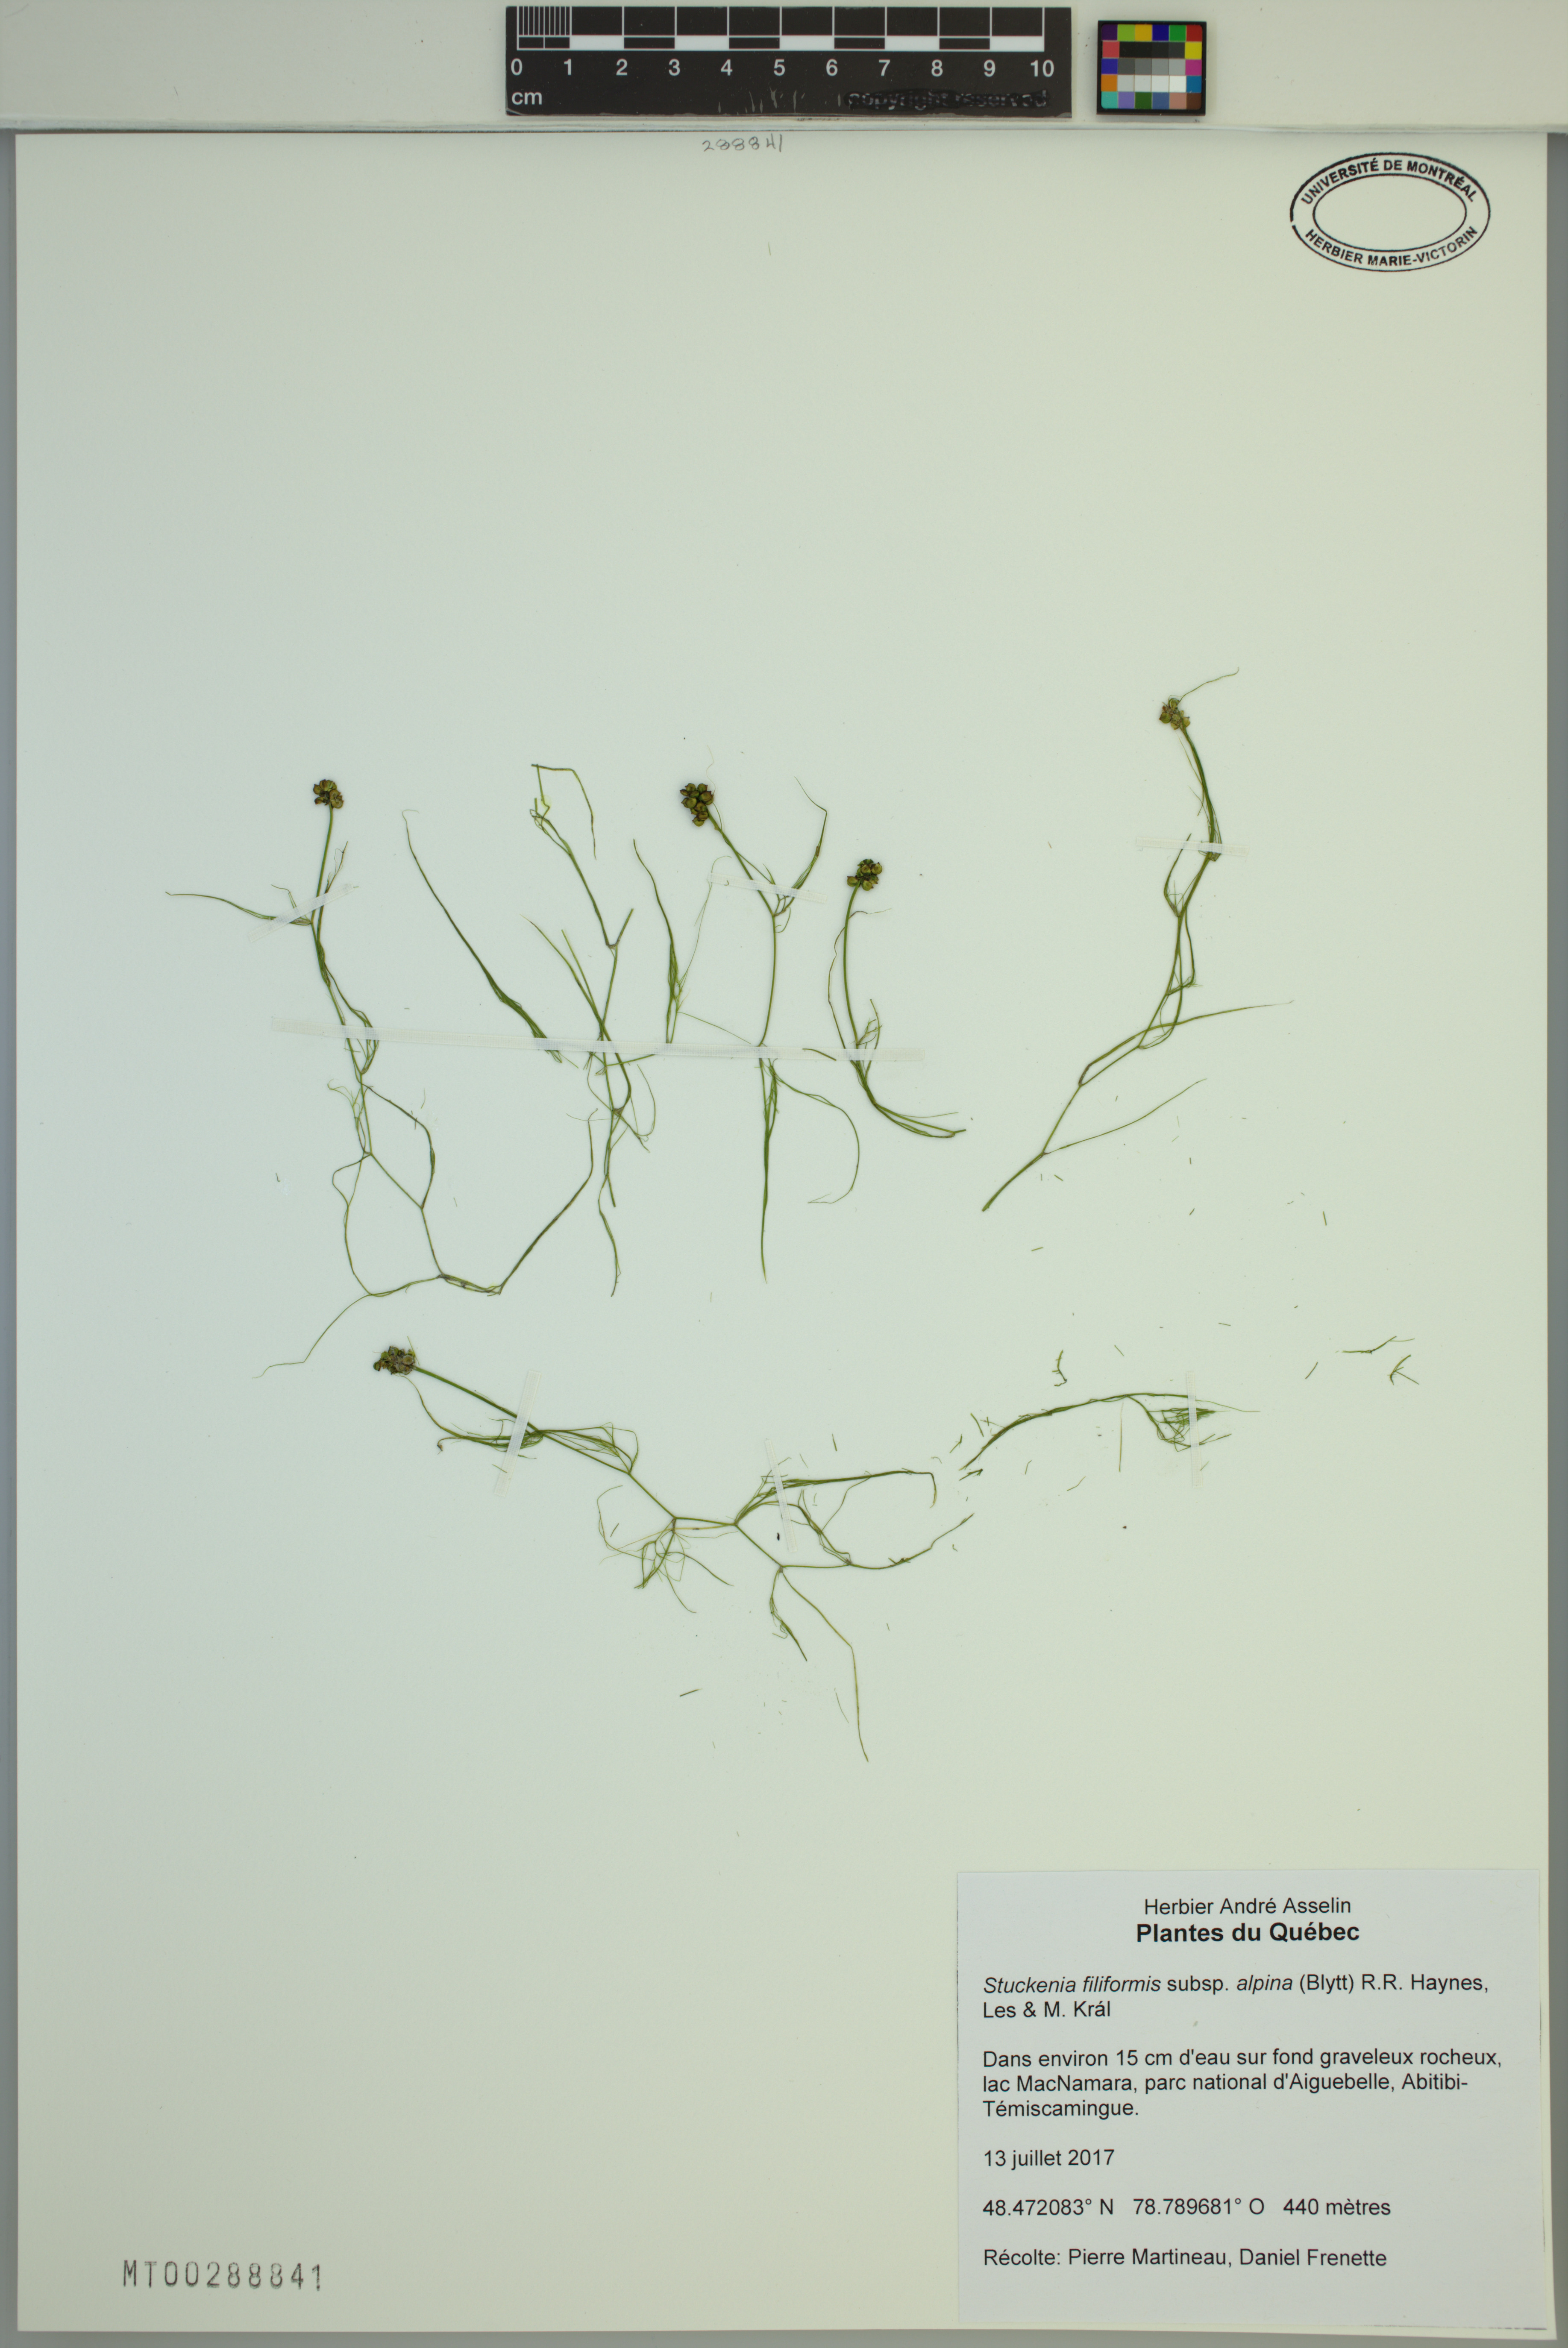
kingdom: Plantae
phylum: Tracheophyta
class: Liliopsida
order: Alismatales
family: Potamogetonaceae
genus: Stuckenia
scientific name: Stuckenia filiformis
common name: Alpine thread-leaved pondweed
